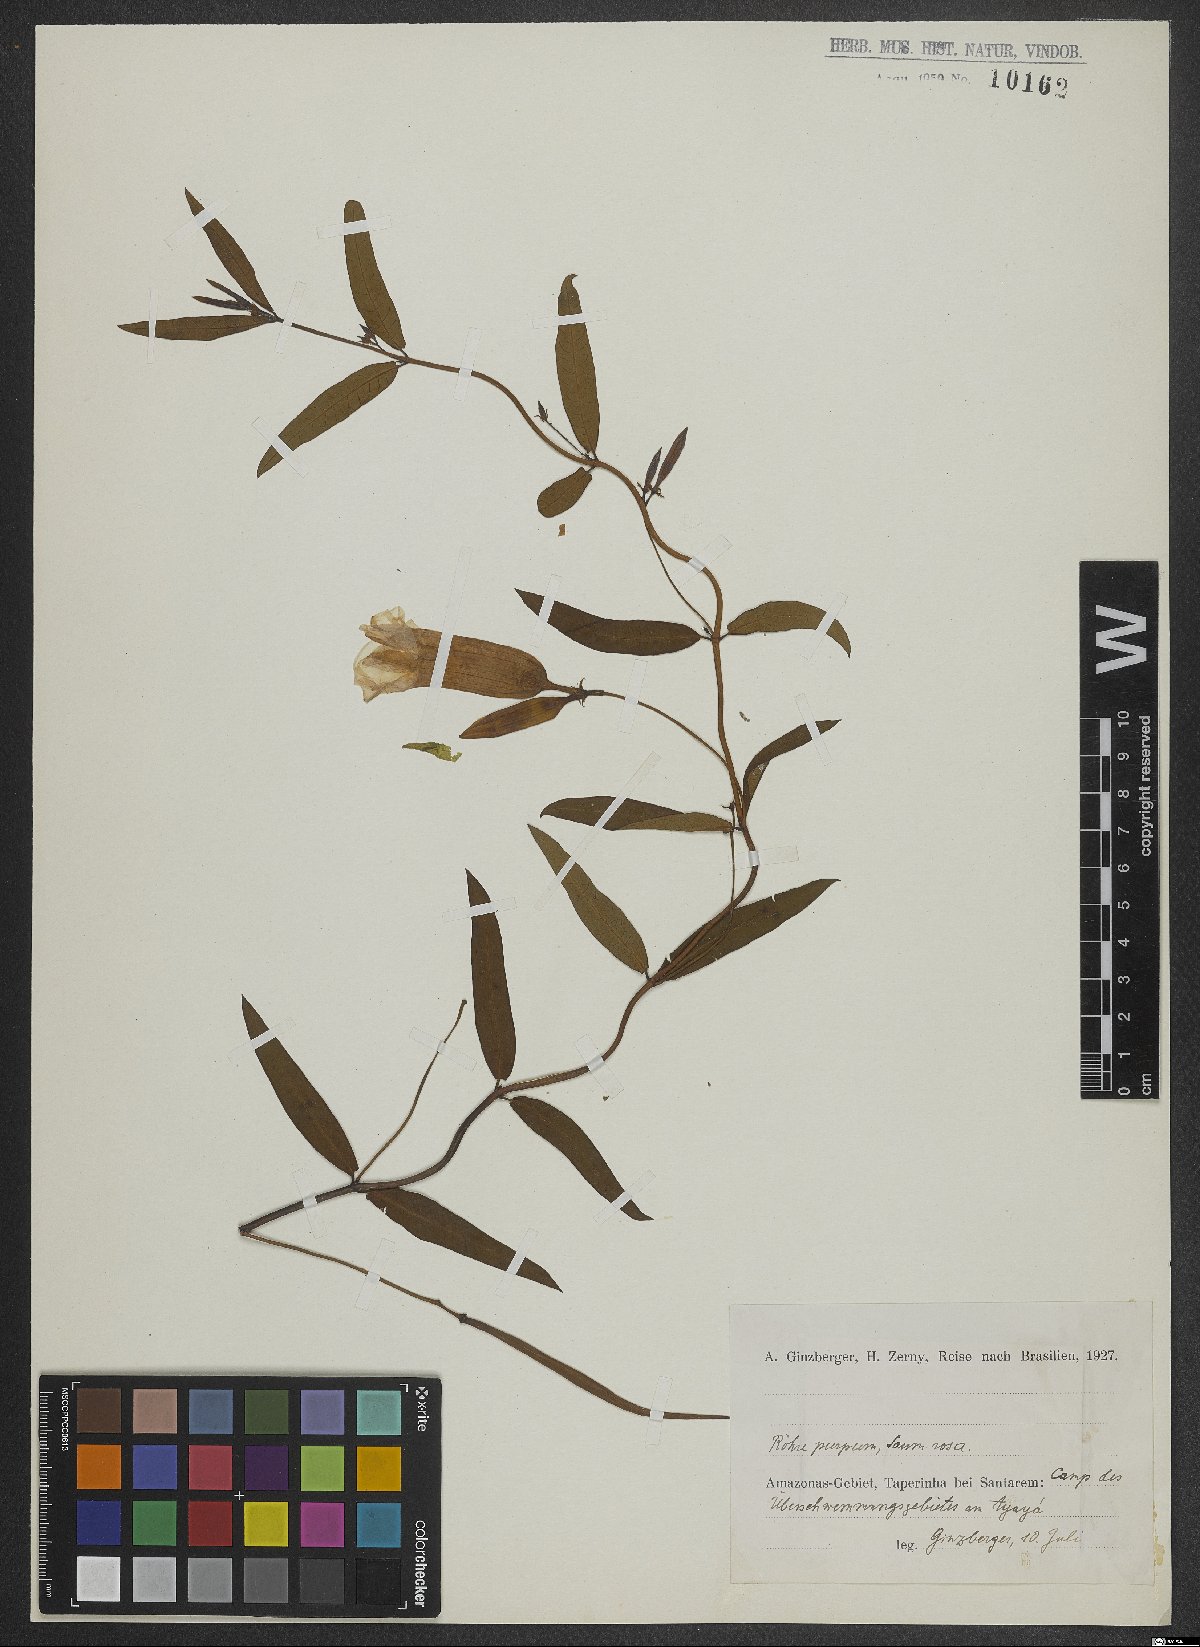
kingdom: Plantae
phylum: Tracheophyta
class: Magnoliopsida
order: Dipsacales
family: Valerianaceae
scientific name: Valerianaceae
